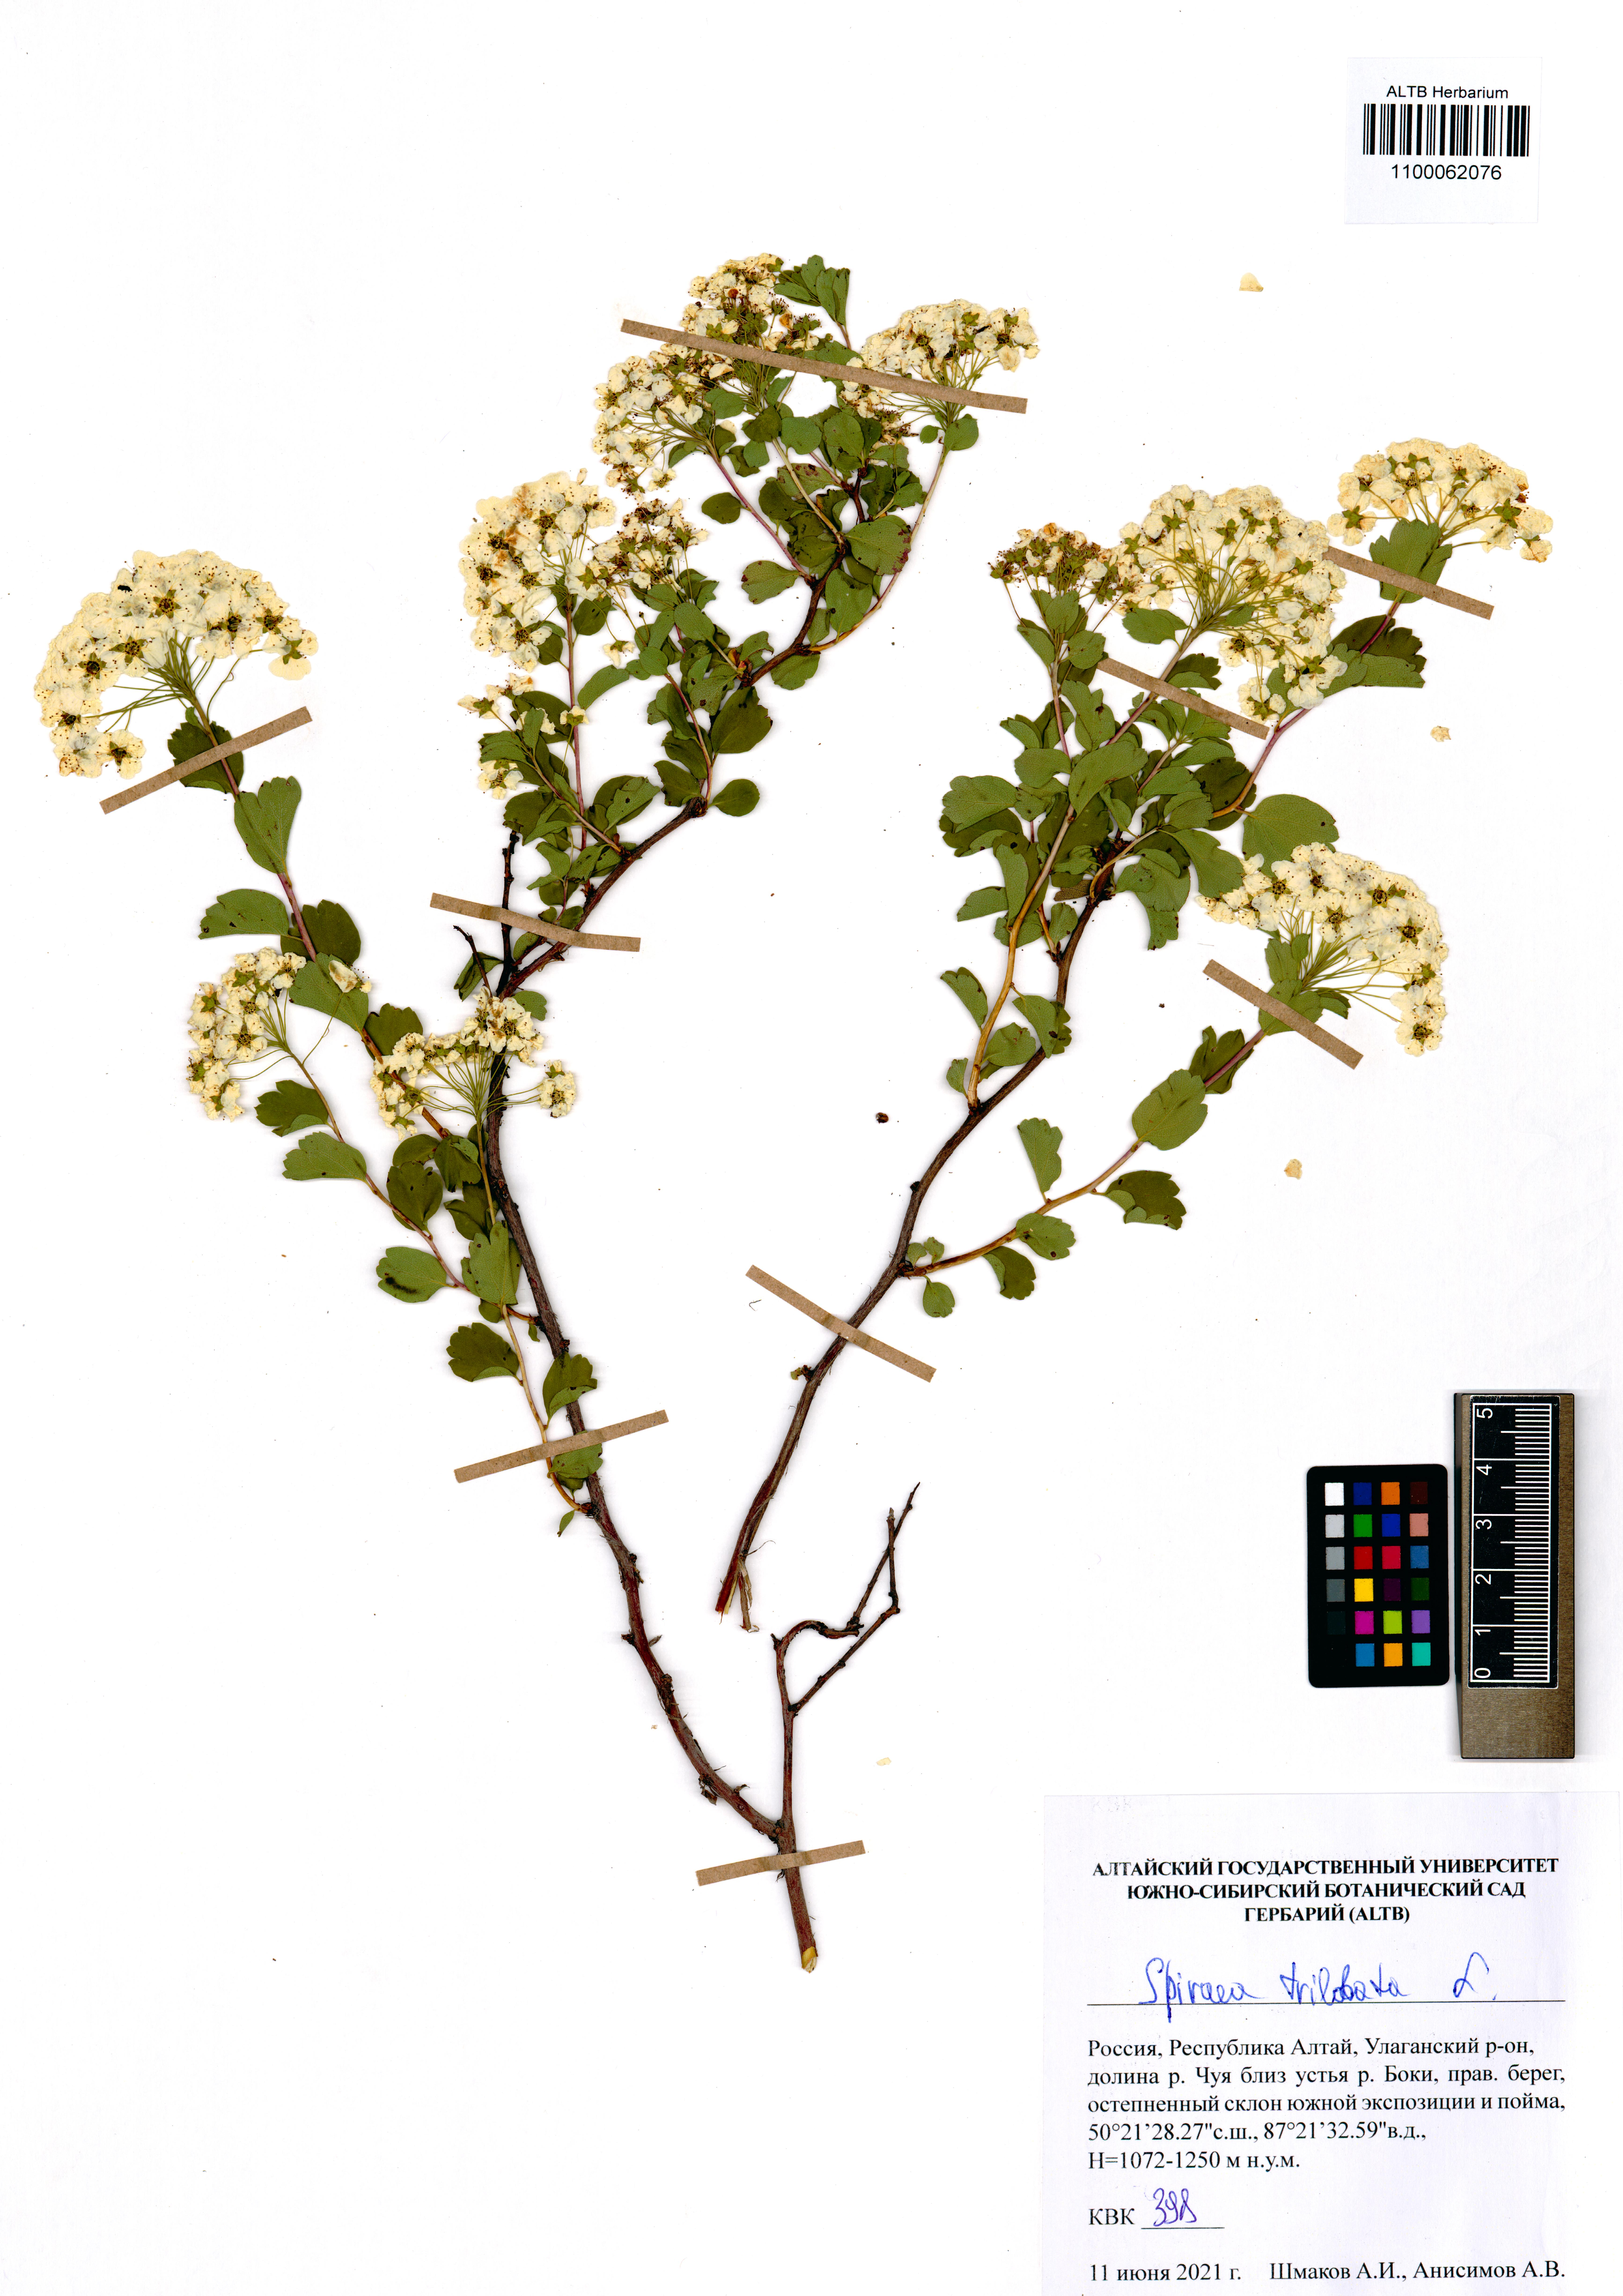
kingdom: Plantae
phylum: Tracheophyta
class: Magnoliopsida
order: Rosales
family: Rosaceae
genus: Spiraea
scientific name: Spiraea trilobata
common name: Asian meadowsweet
